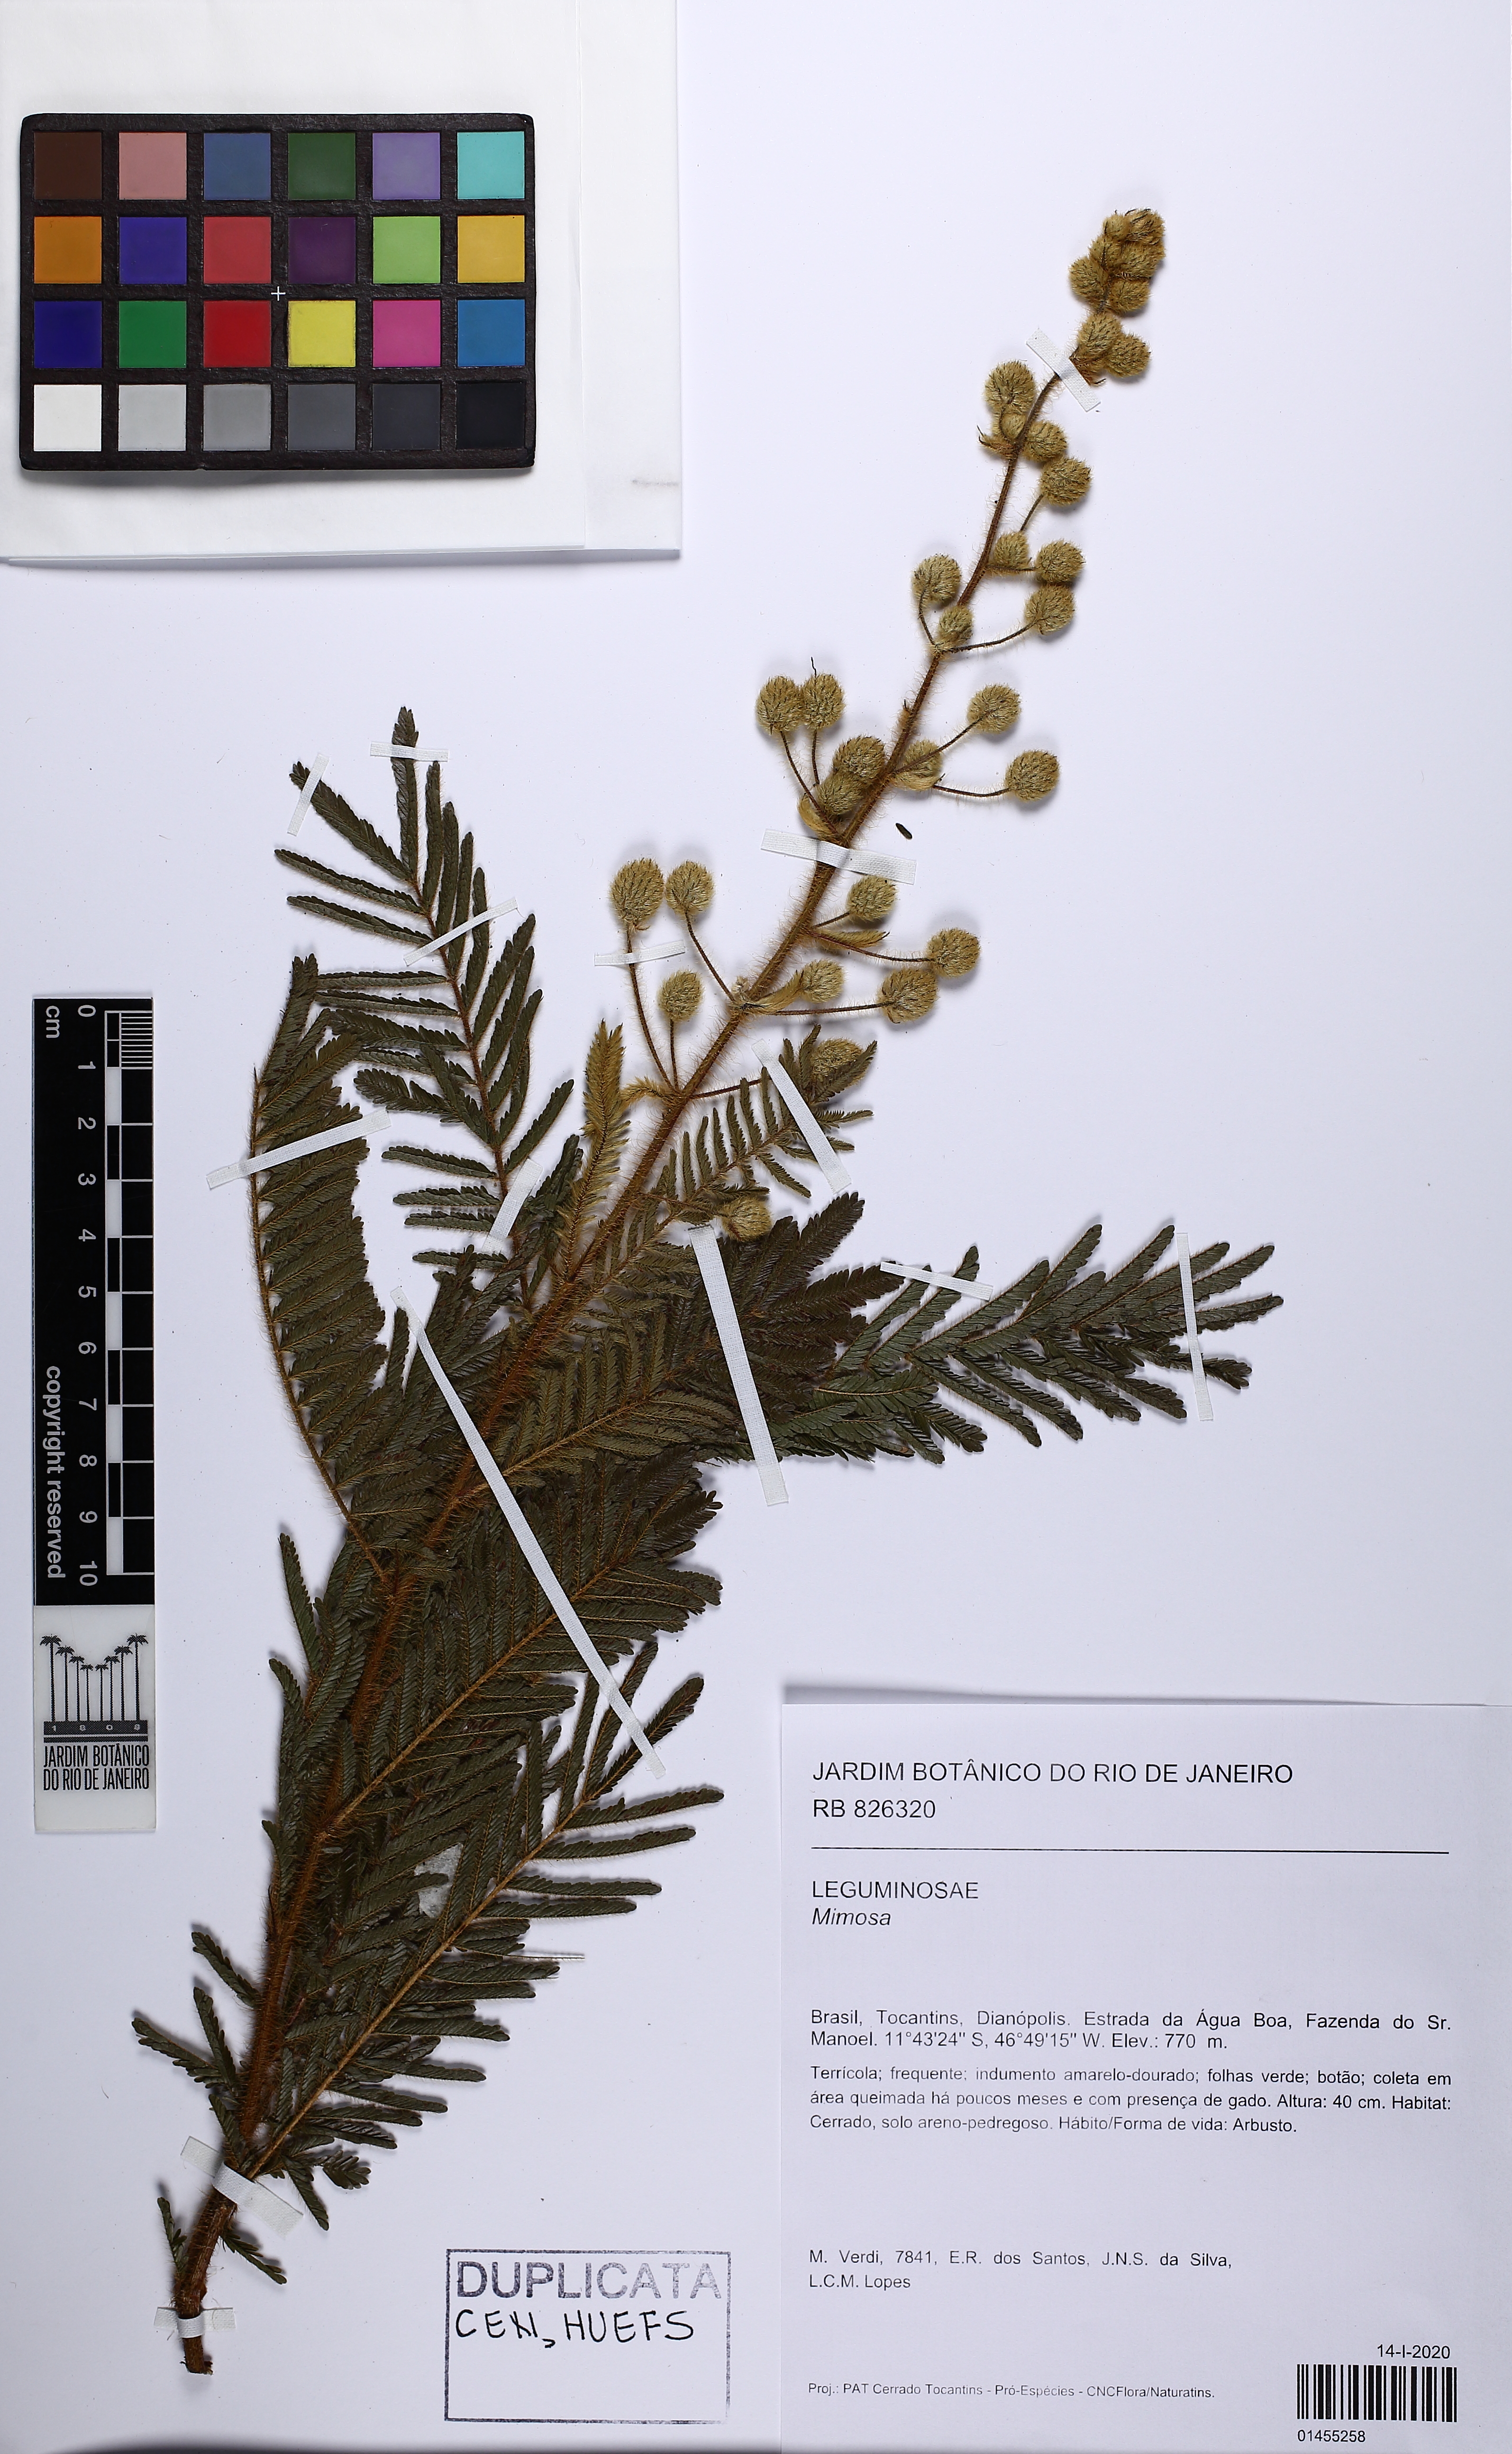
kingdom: Plantae
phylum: Tracheophyta
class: Magnoliopsida
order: Fabales
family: Fabaceae
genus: Mimosa
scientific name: Mimosa
